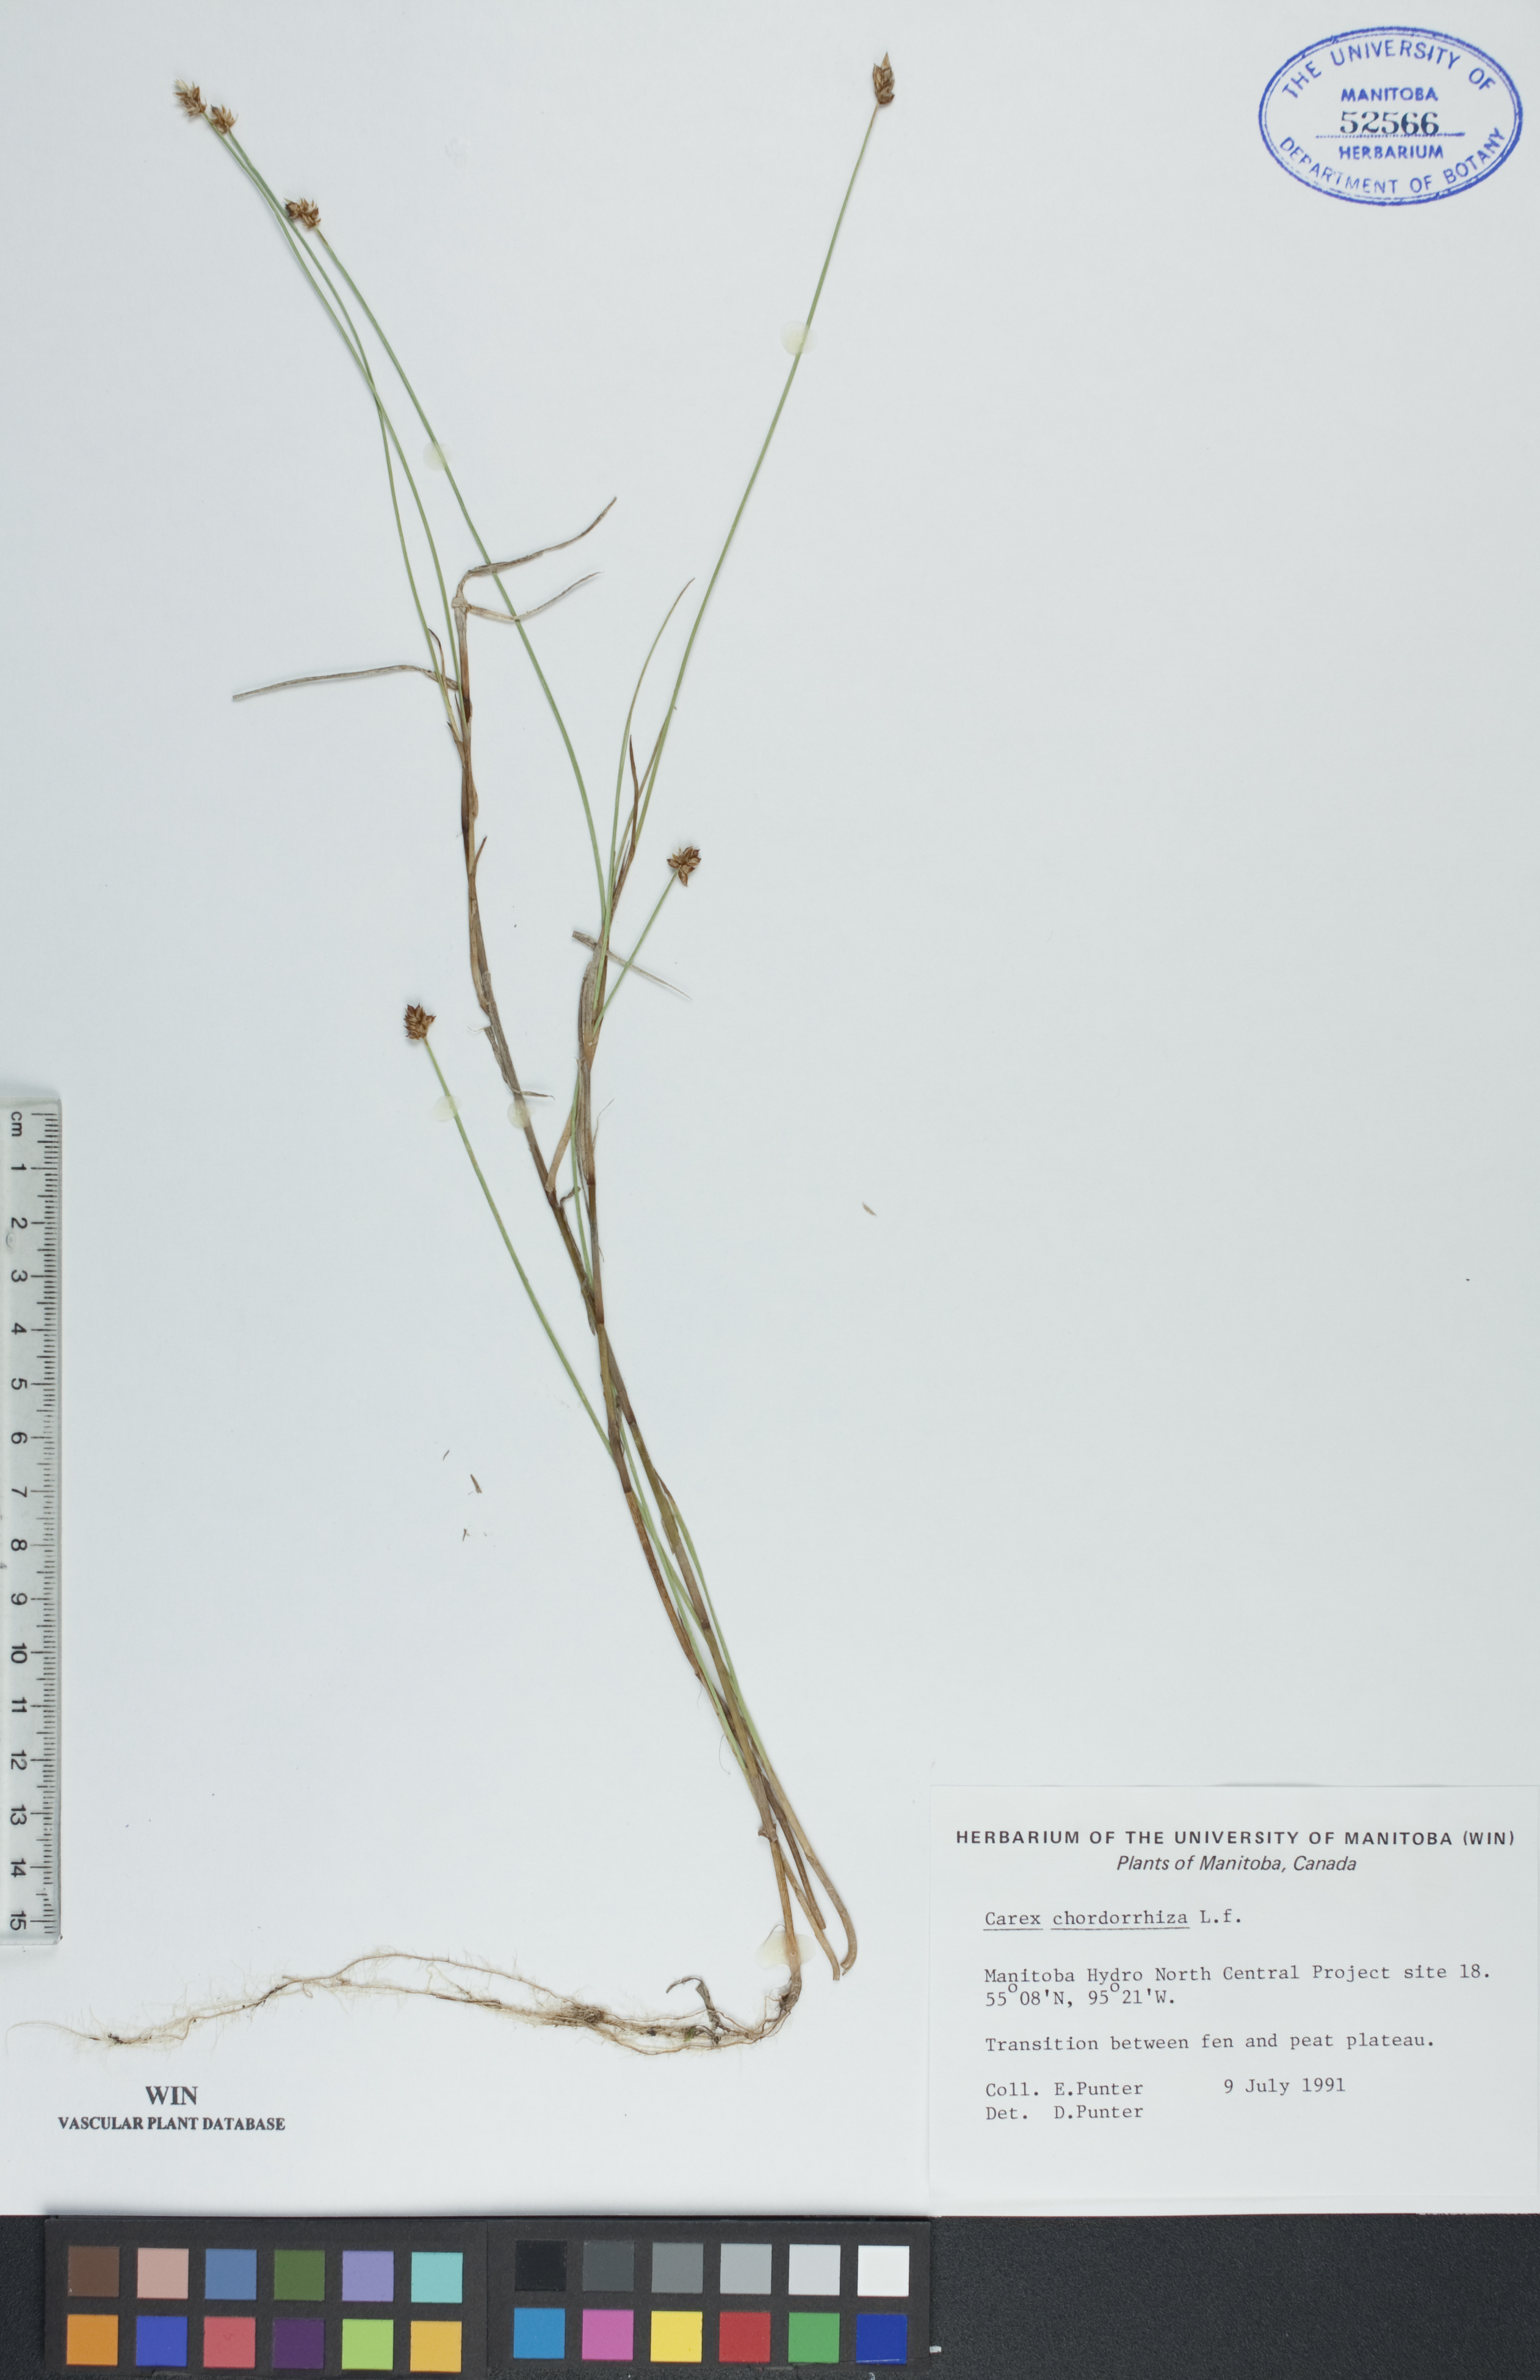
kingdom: Plantae
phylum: Tracheophyta
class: Liliopsida
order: Poales
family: Cyperaceae
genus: Carex
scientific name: Carex chordorrhiza
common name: String sedge
